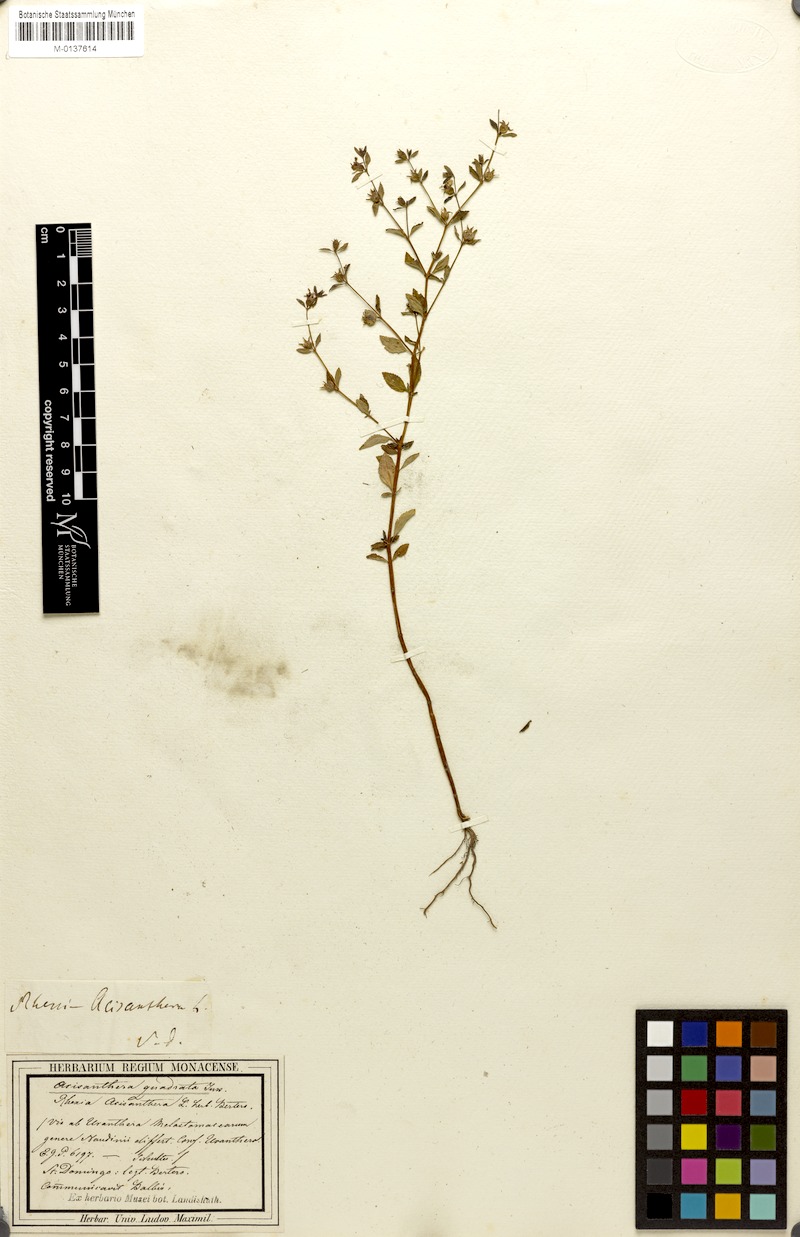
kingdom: Plantae
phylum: Tracheophyta
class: Magnoliopsida
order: Myrtales
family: Melastomataceae
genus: Acisanthera
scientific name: Acisanthera quadrata
